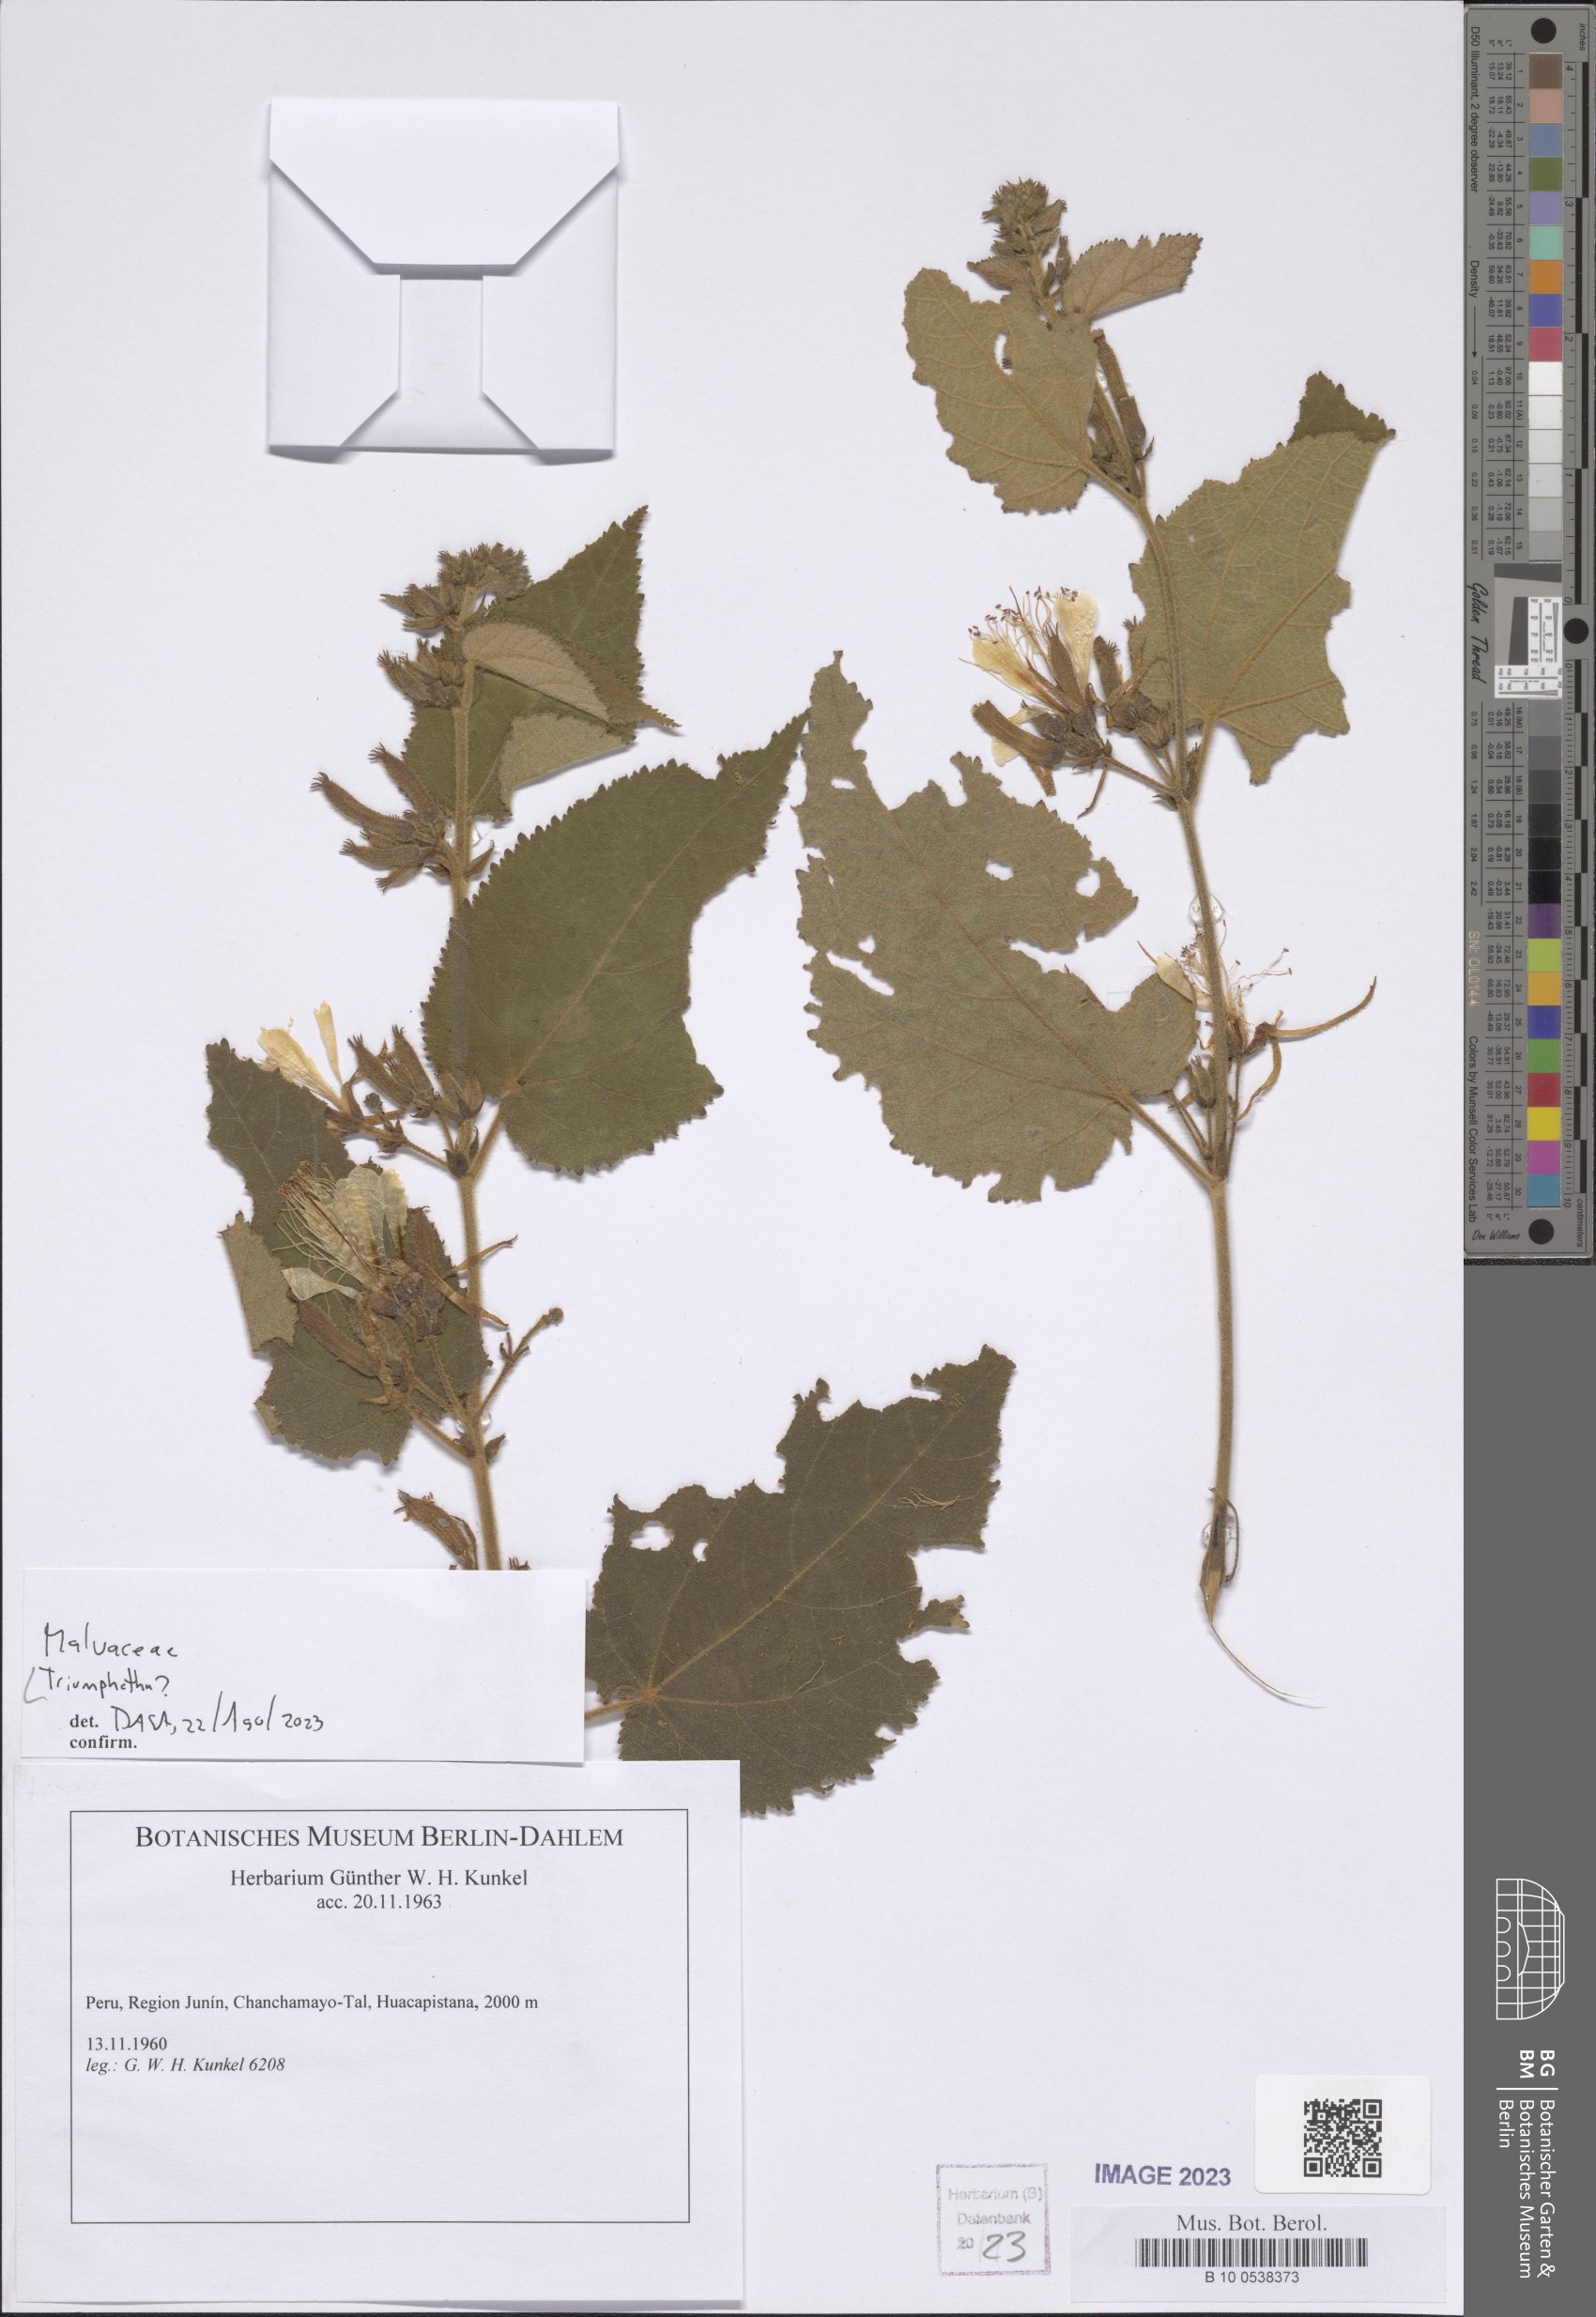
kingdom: Plantae
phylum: Tracheophyta
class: Magnoliopsida
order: Malvales
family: Malvaceae
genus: Triumfetta
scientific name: Triumfetta
